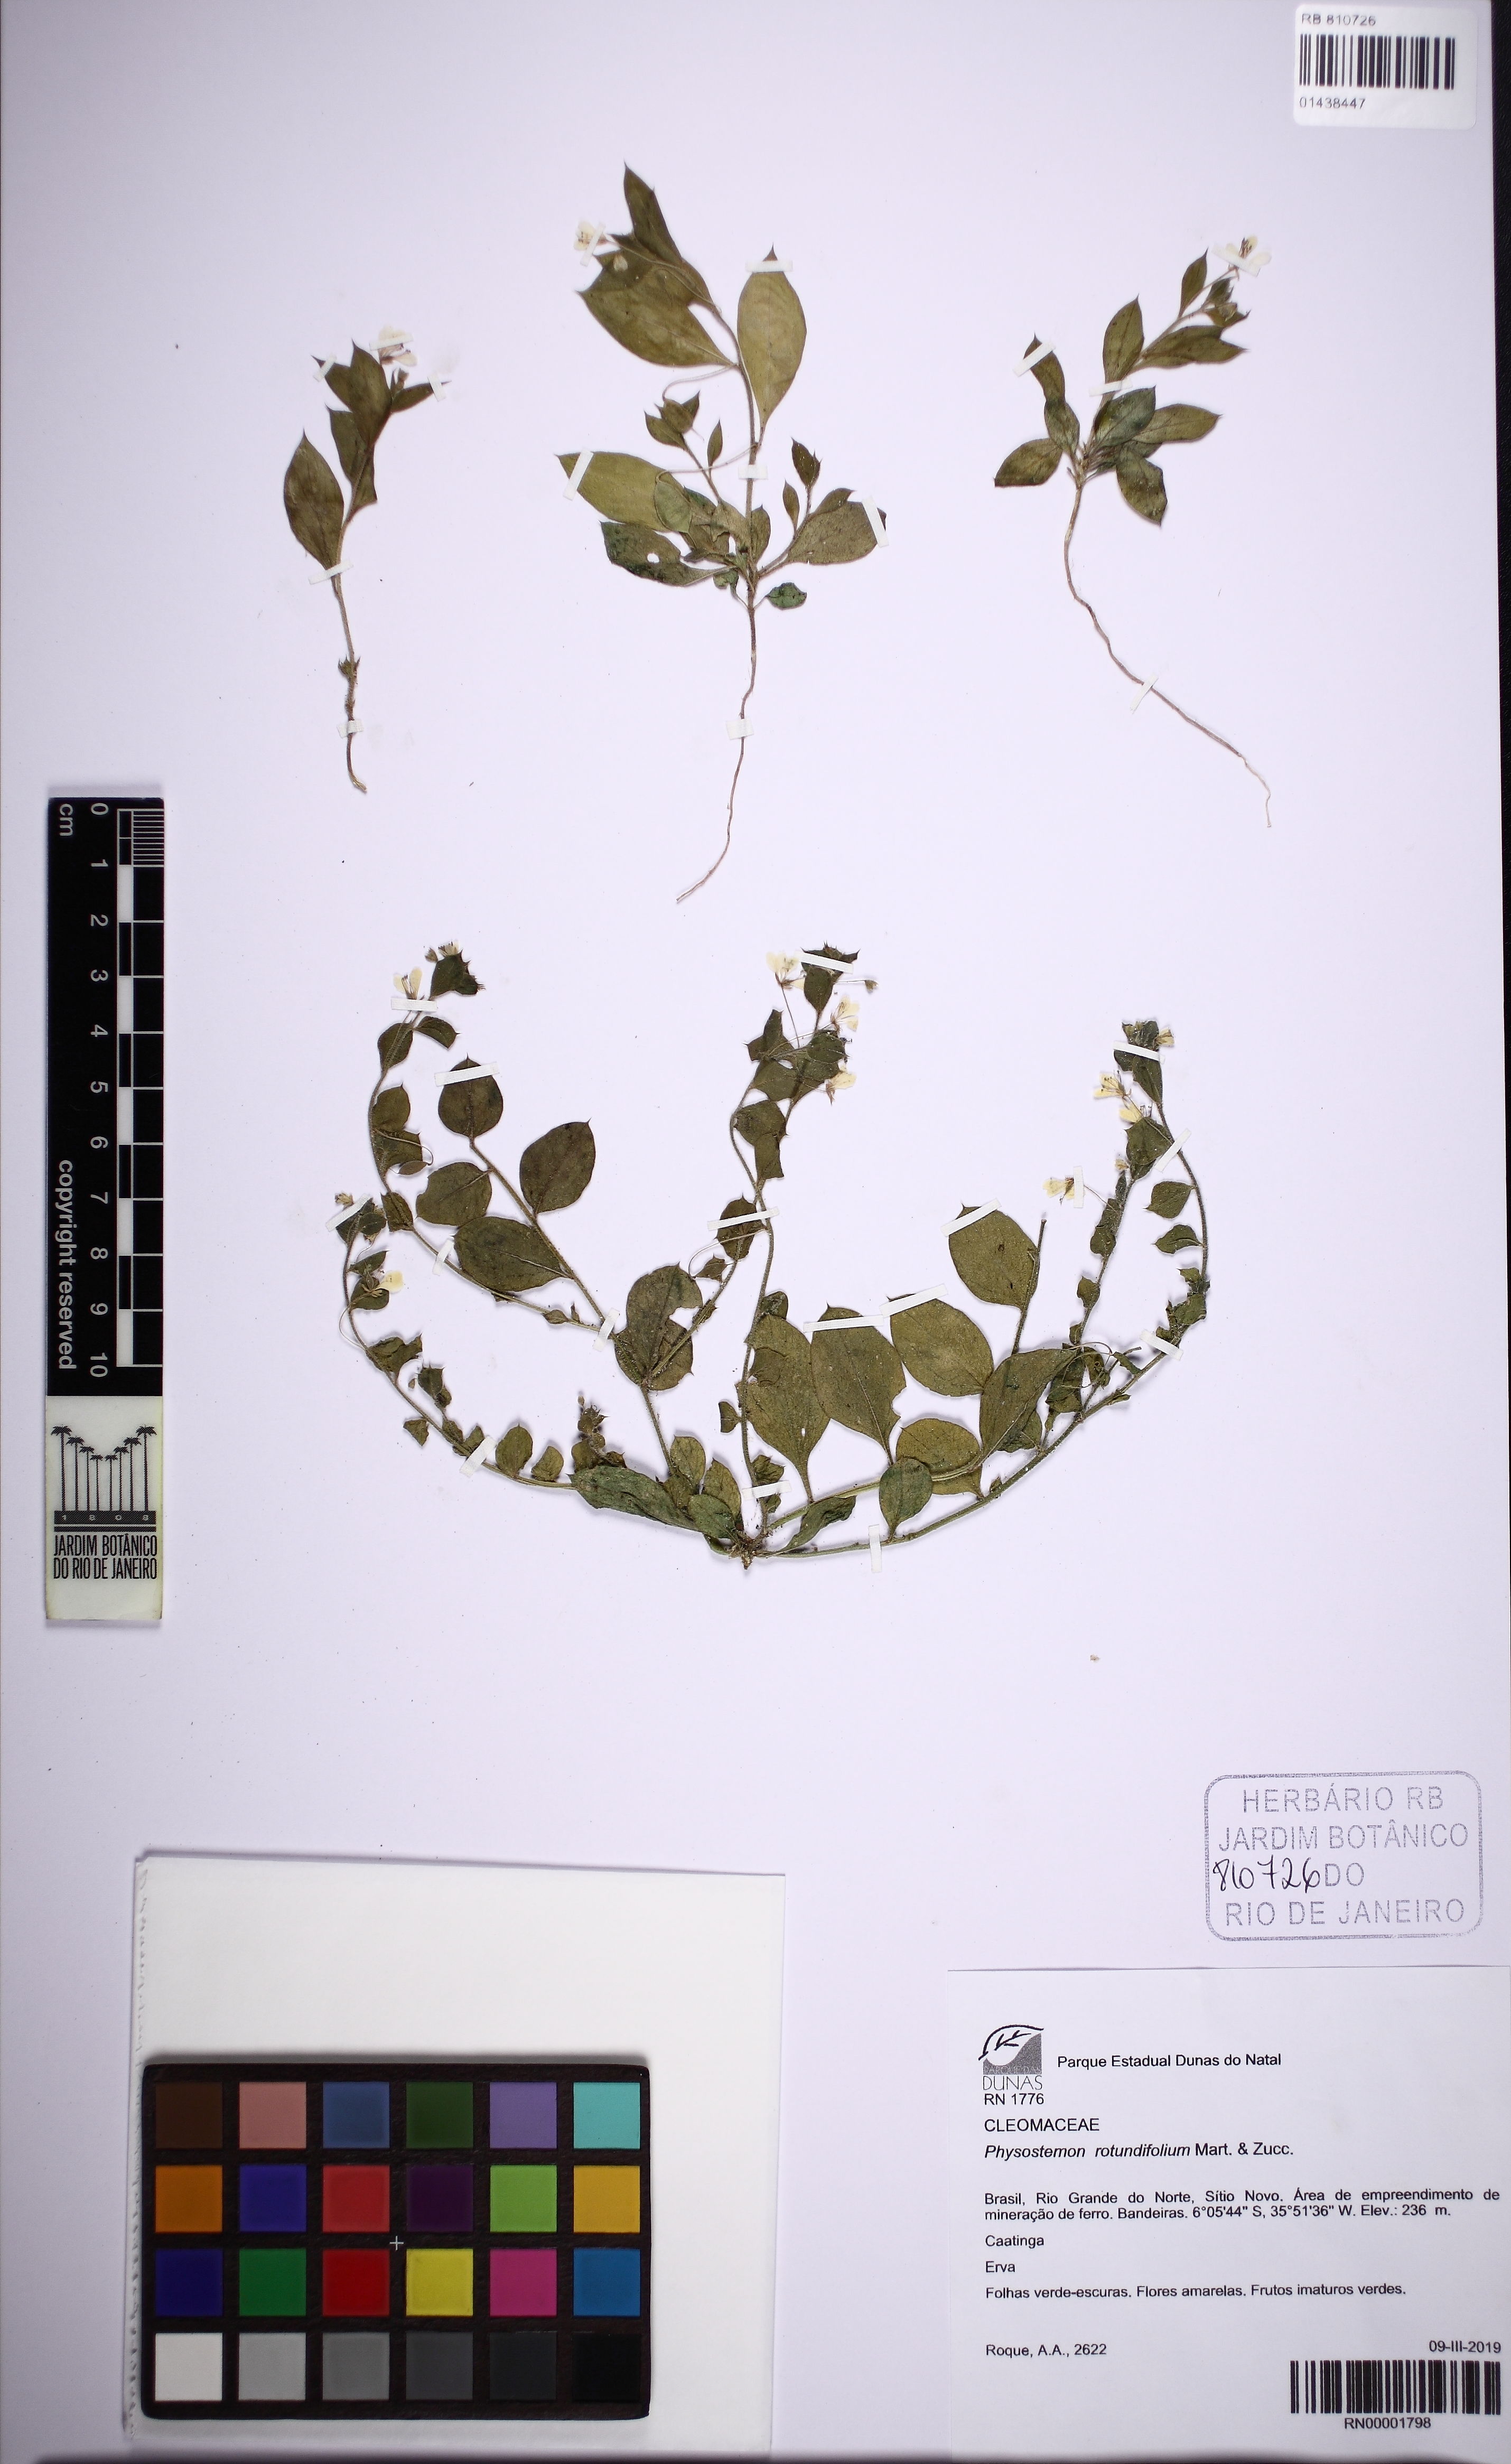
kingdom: Plantae
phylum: Tracheophyta
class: Magnoliopsida
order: Brassicales
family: Cleomaceae
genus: Physostemon
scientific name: Physostemon rotundifolius
